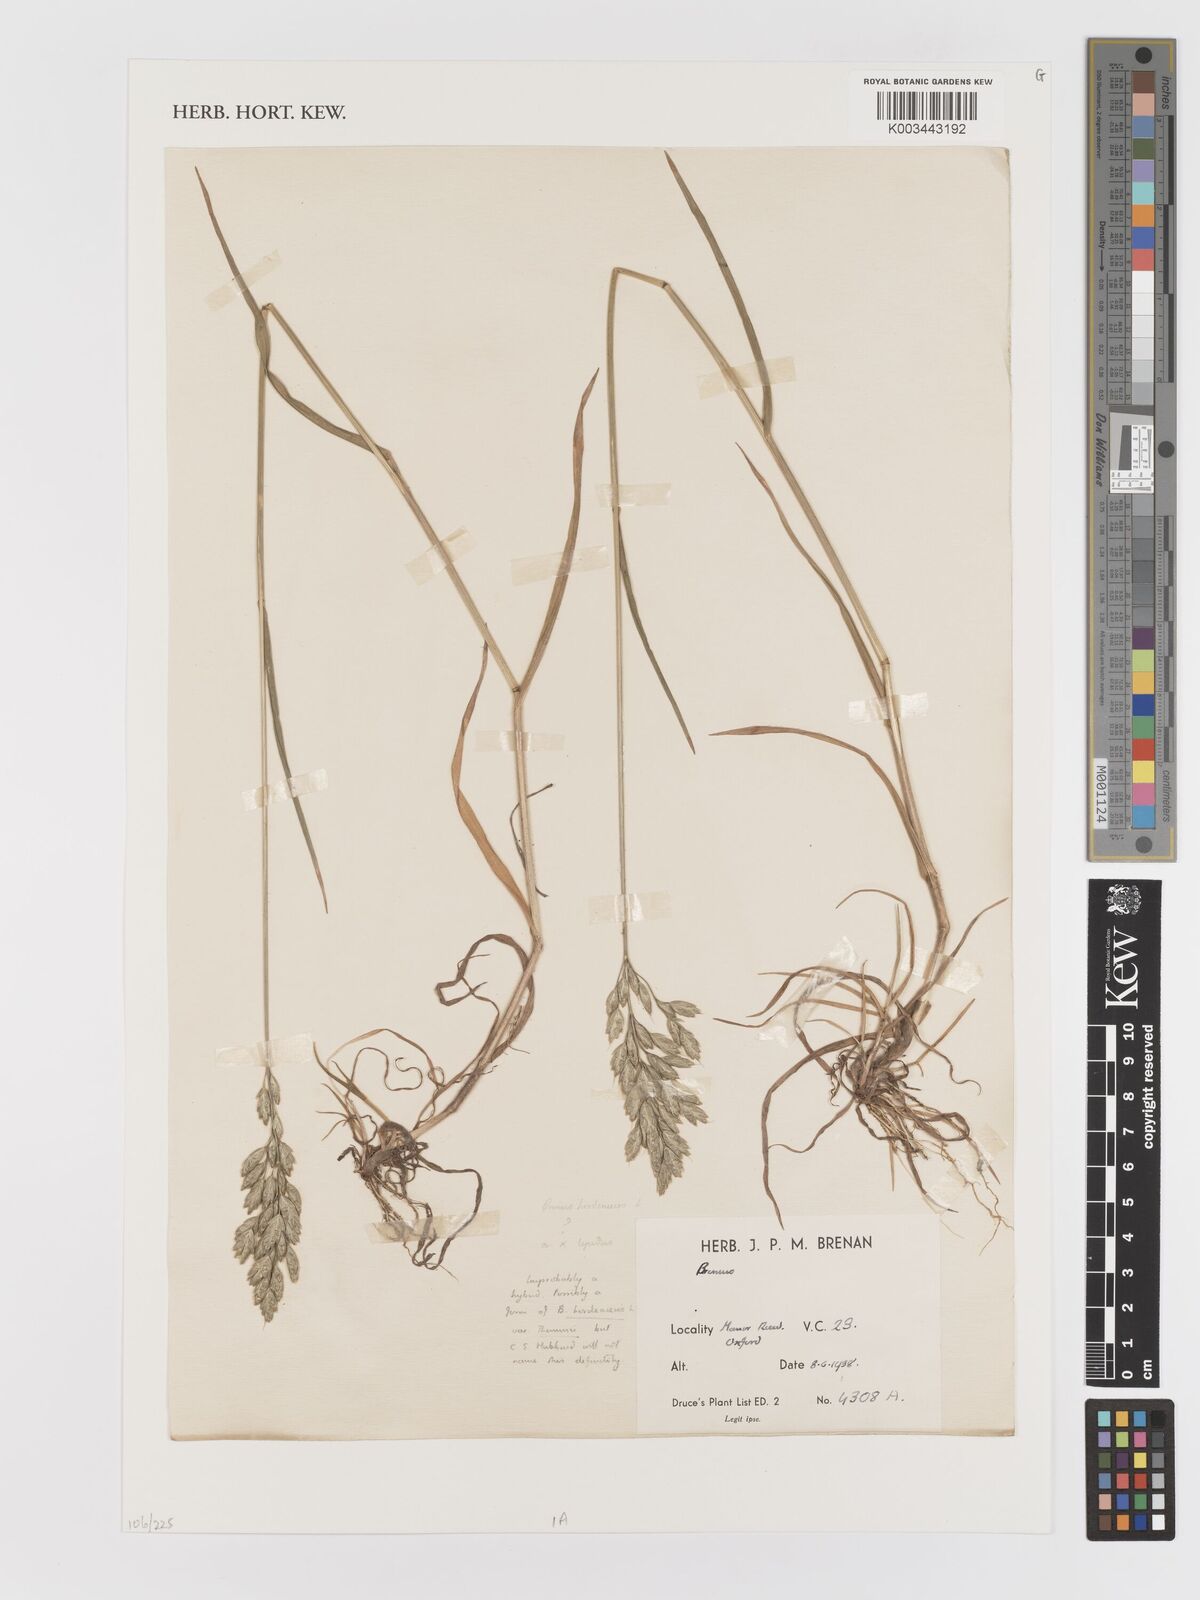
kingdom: Plantae
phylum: Tracheophyta
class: Liliopsida
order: Poales
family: Poaceae
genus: Bromus
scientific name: Bromus
